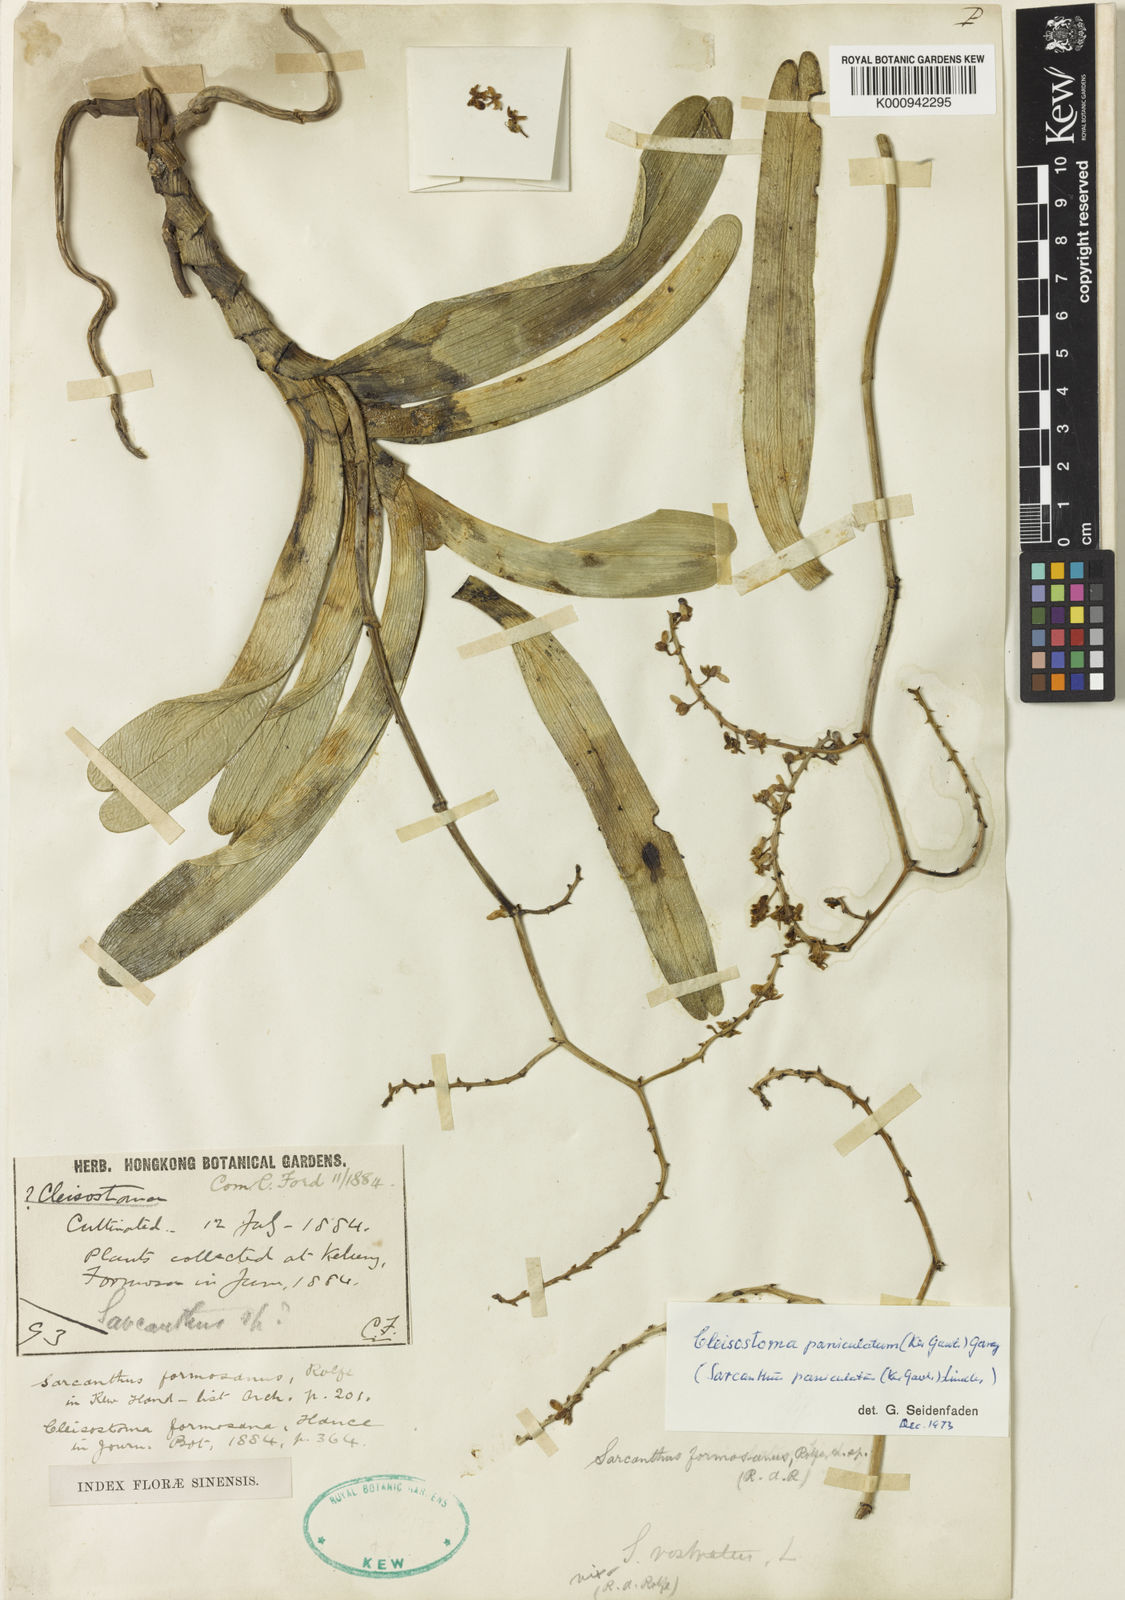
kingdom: Plantae
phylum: Tracheophyta
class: Liliopsida
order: Asparagales
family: Orchidaceae
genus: Cleisostoma
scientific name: Cleisostoma paniculatum
